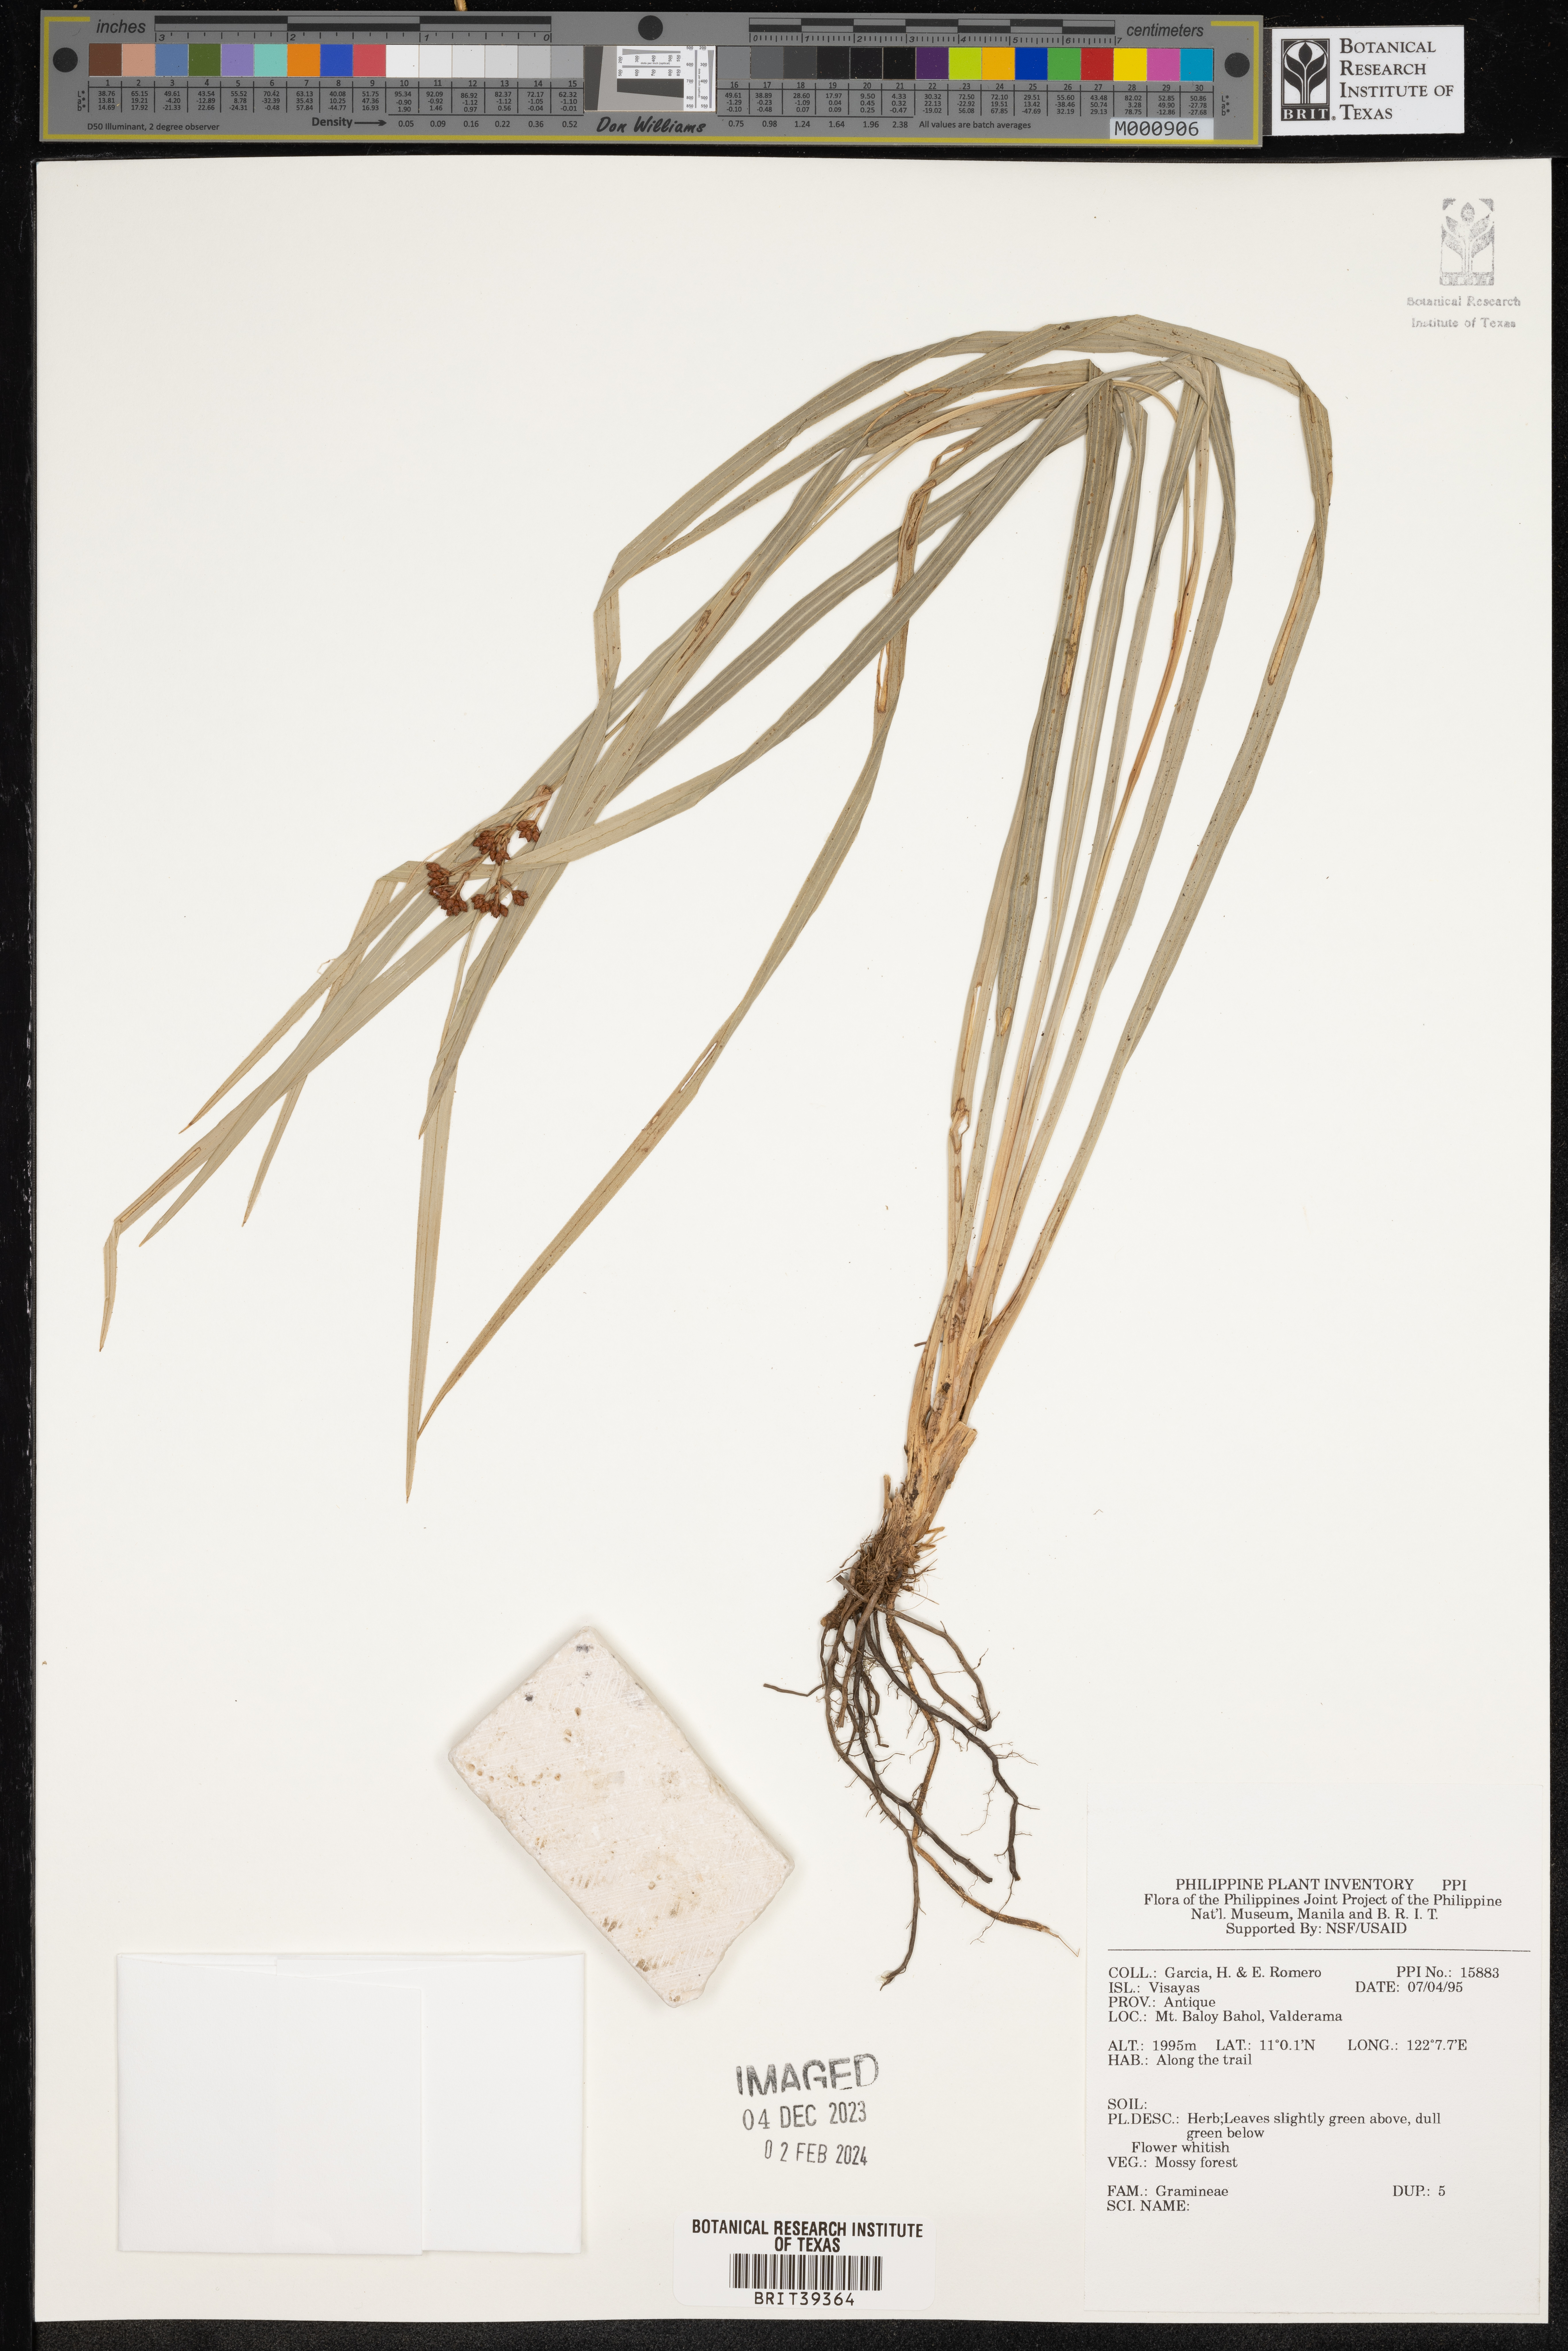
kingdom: Plantae
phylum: Tracheophyta
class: Liliopsida
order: Poales
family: Poaceae
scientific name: Poaceae
